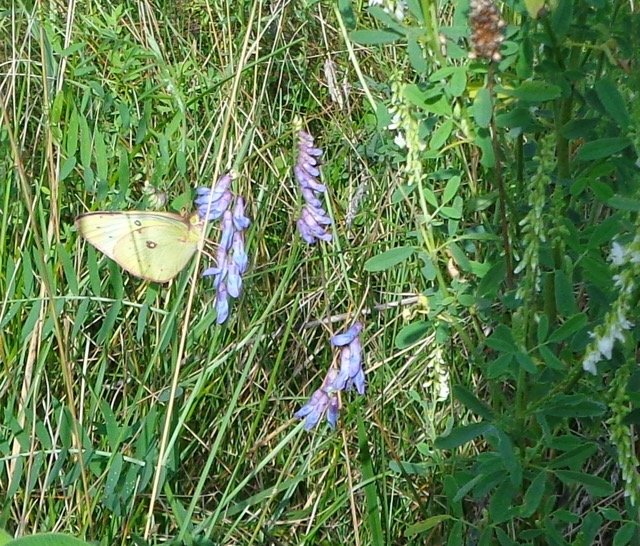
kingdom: Animalia
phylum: Arthropoda
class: Insecta
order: Lepidoptera
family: Pieridae
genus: Colias
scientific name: Colias philodice
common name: Clouded Sulphur
